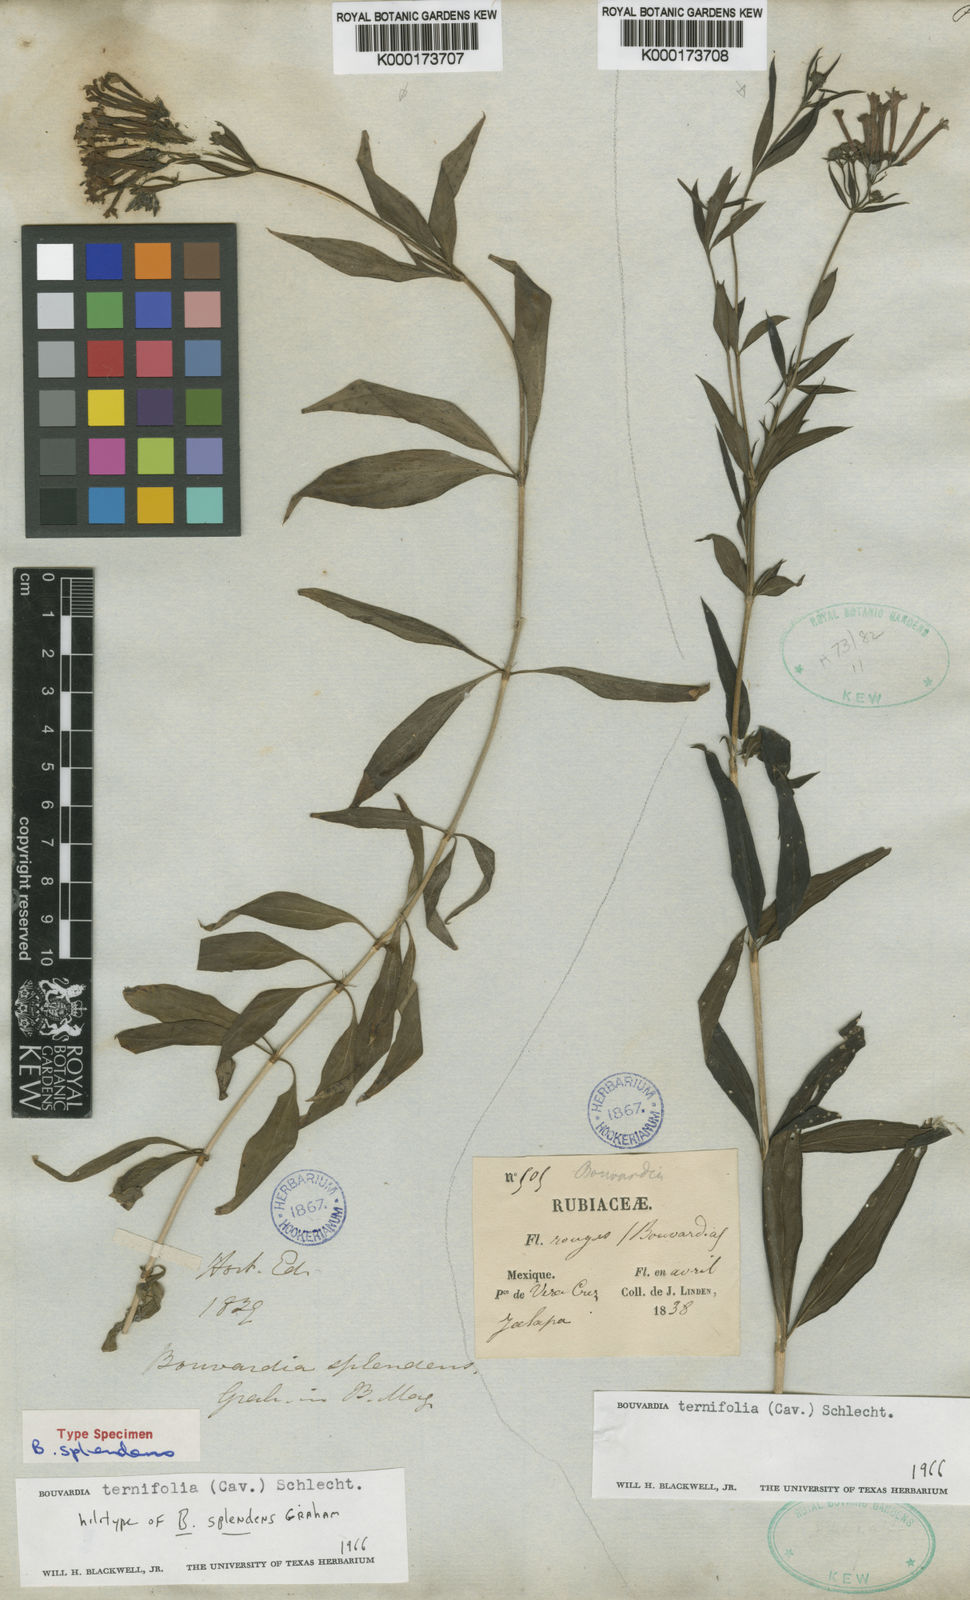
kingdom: Plantae
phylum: Tracheophyta
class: Magnoliopsida
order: Gentianales
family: Rubiaceae
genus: Bouvardia
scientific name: Bouvardia ternifolia
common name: Scarlet bouvardia
